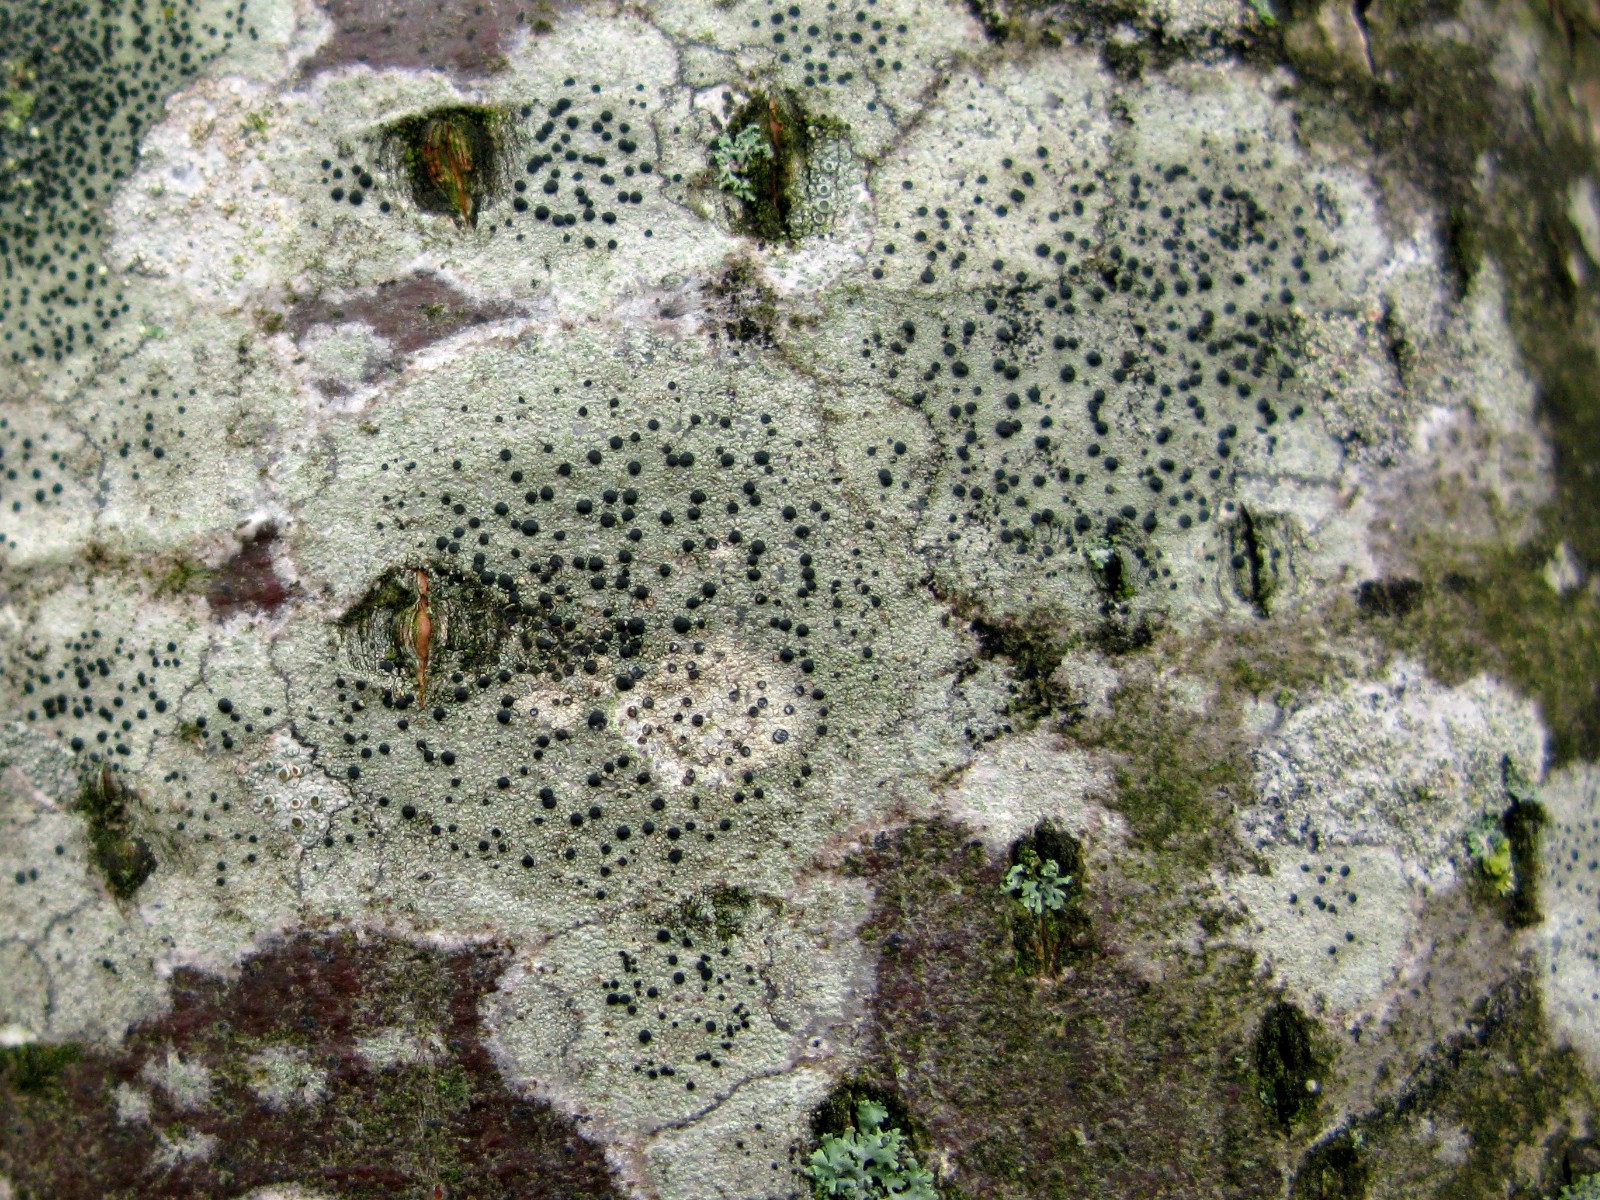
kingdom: Fungi
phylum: Ascomycota
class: Lecanoromycetes
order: Lecanorales
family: Lecanoraceae
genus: Lecidella
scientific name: Lecidella elaeochroma
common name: grågrøn skivelav
